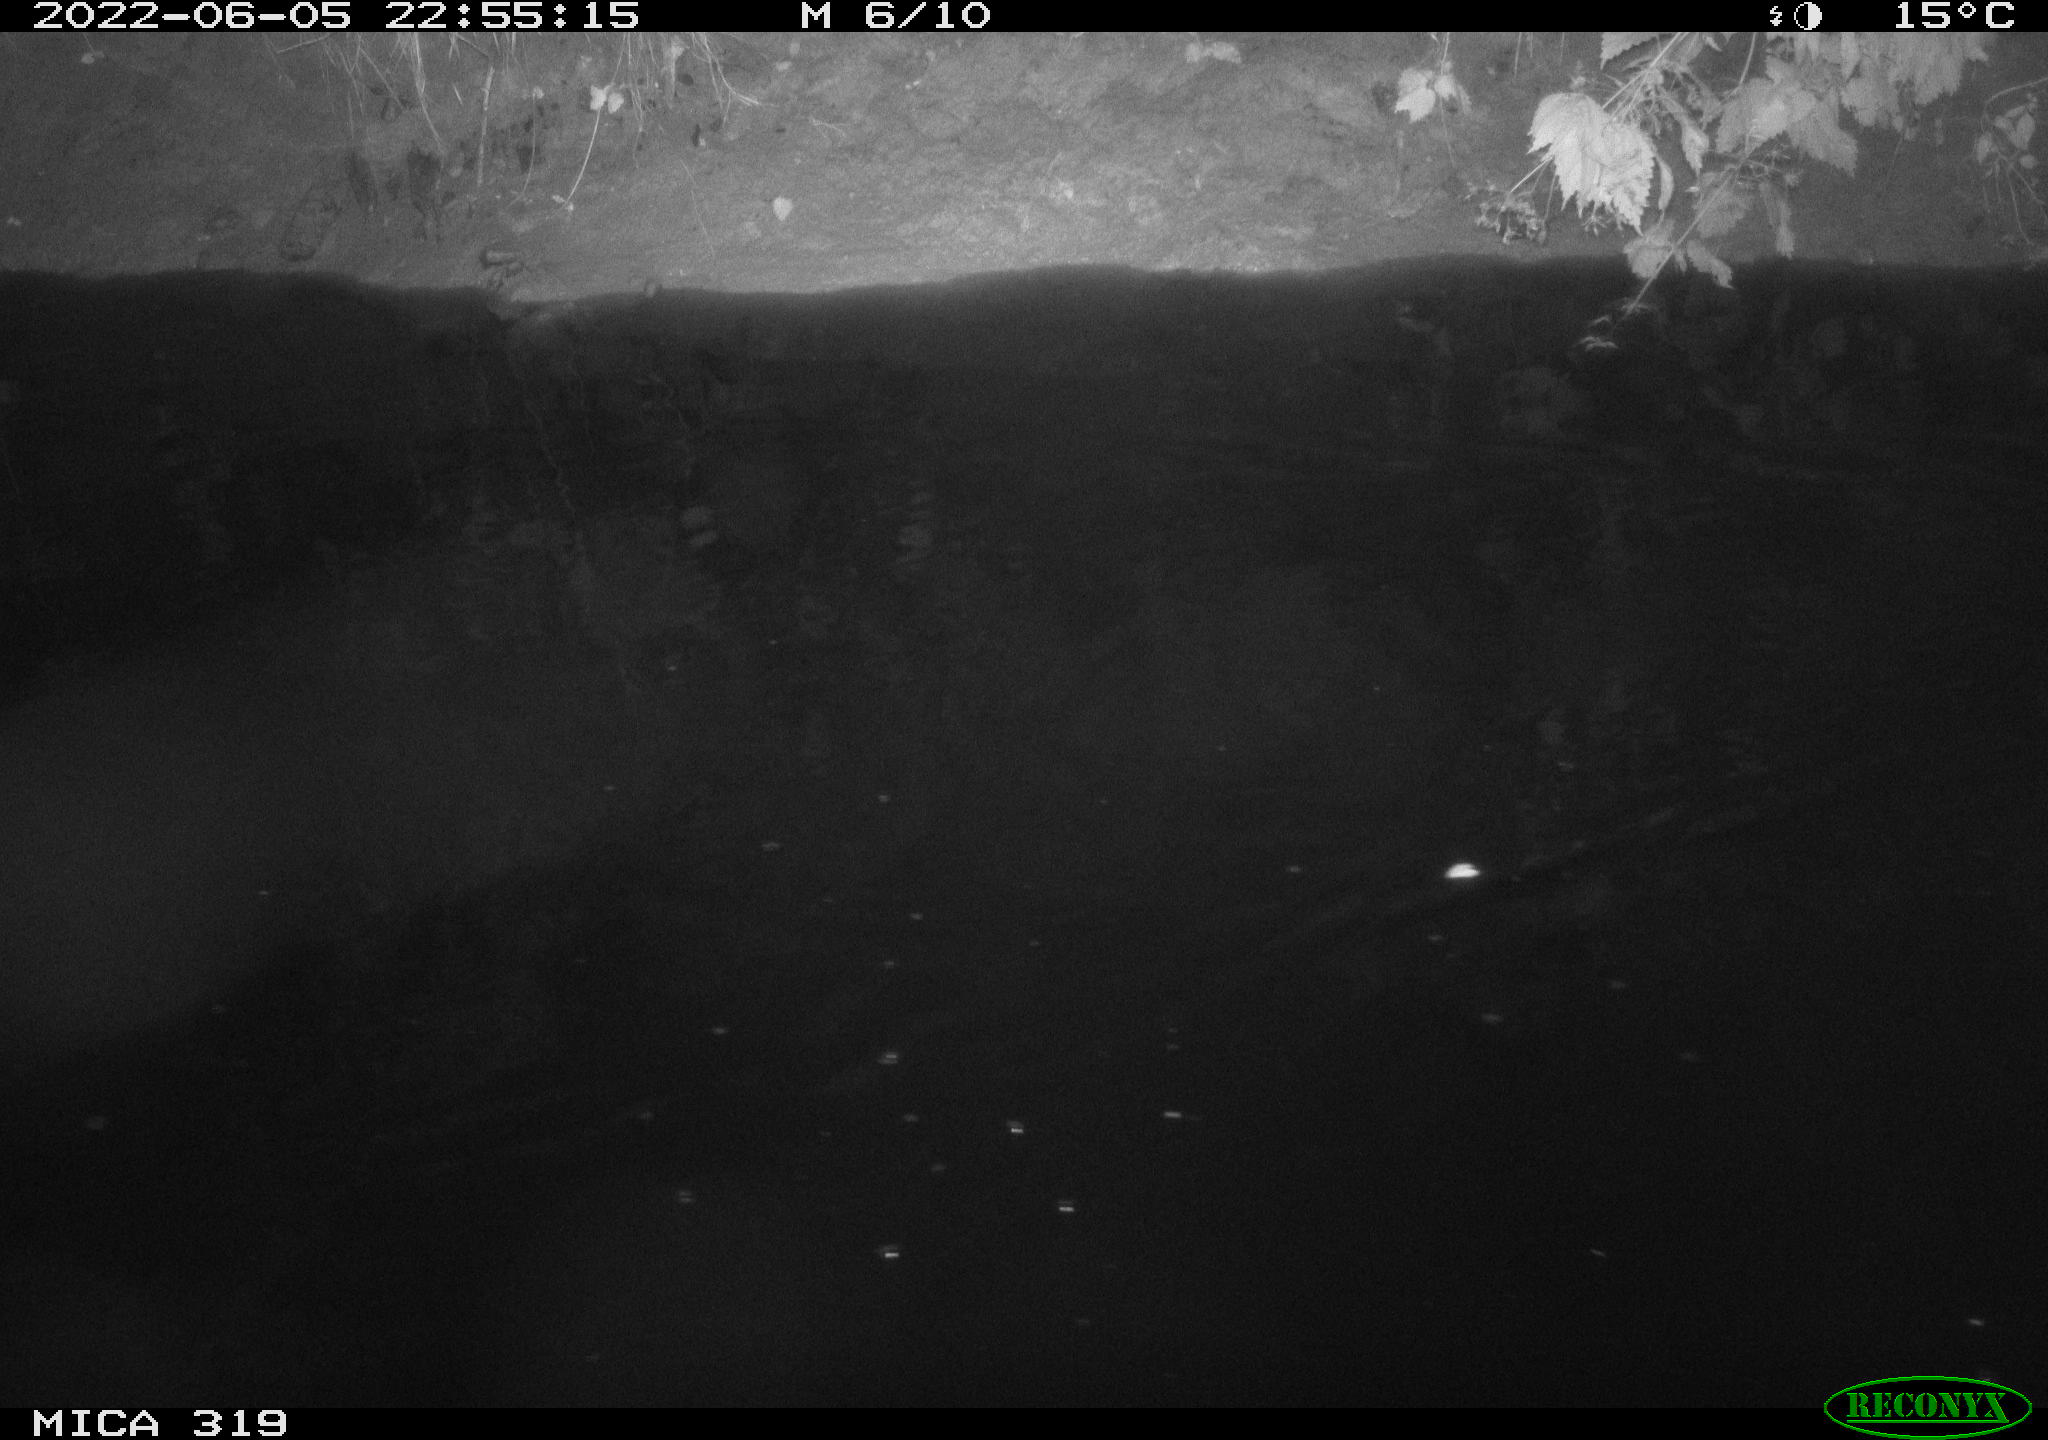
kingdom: Animalia
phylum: Chordata
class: Aves
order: Anseriformes
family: Anatidae
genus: Anas
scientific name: Anas
